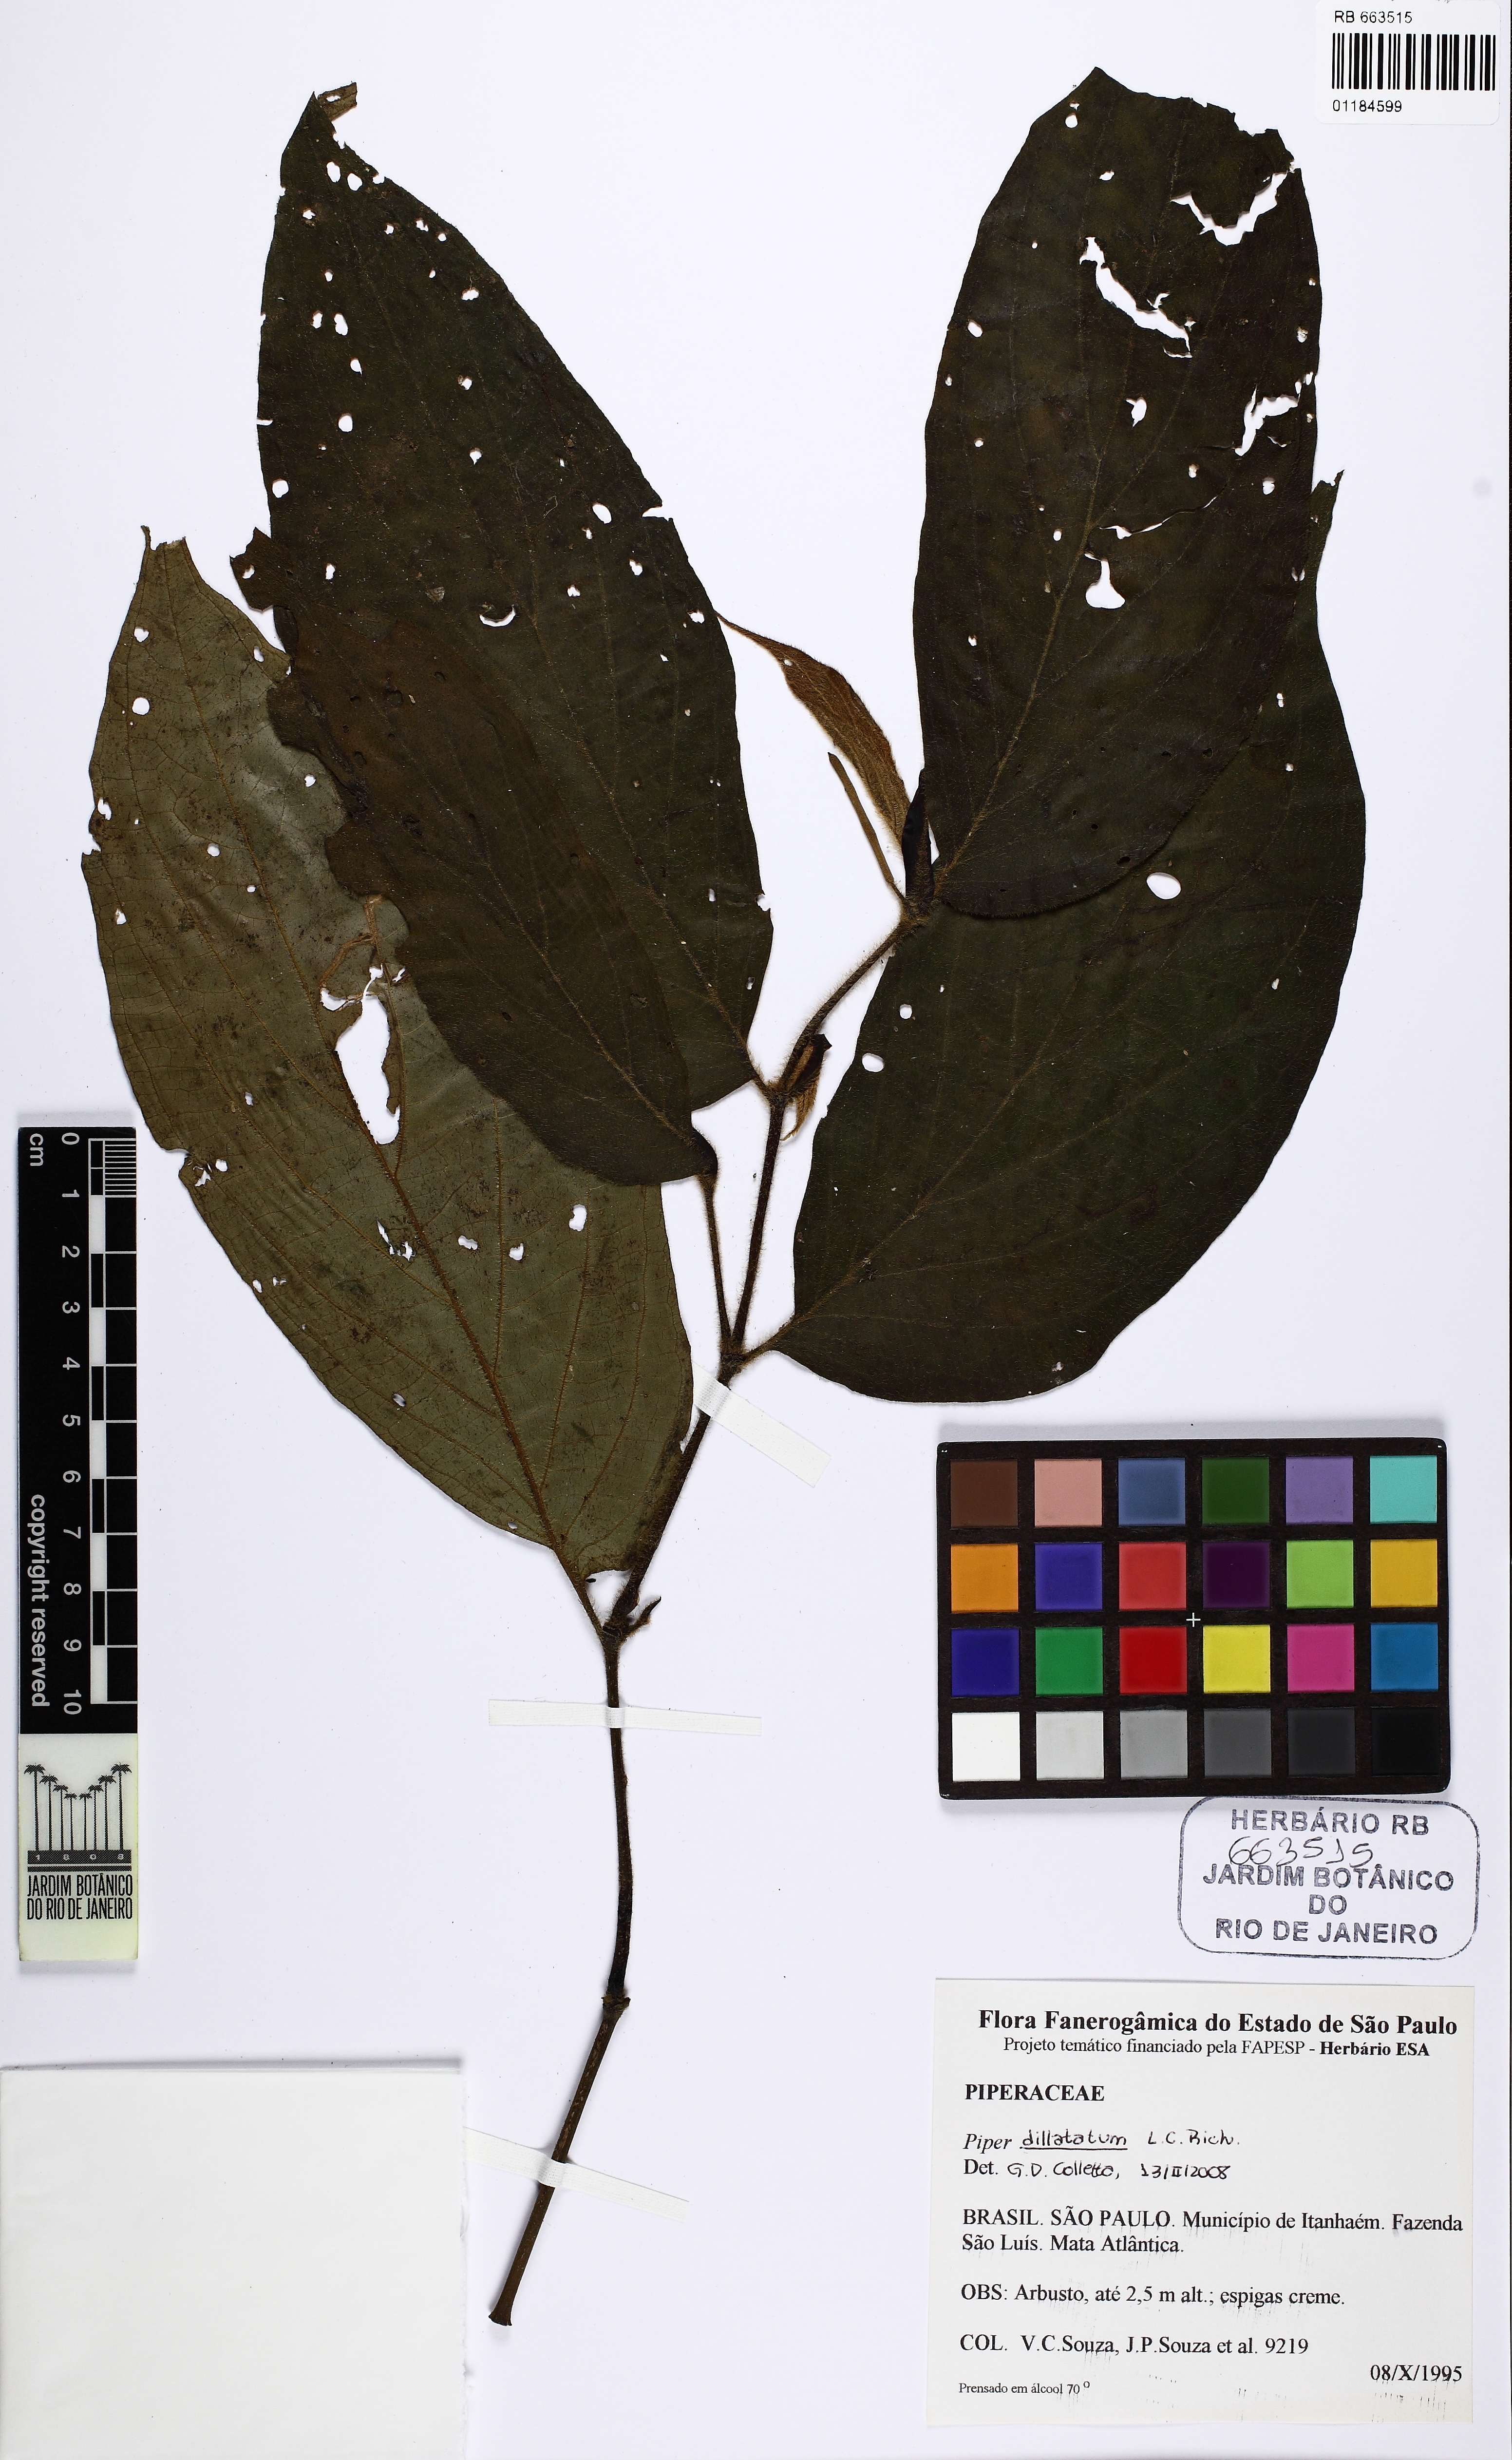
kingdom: Plantae
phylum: Tracheophyta
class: Magnoliopsida
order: Piperales
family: Piperaceae
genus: Piper
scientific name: Piper dilatatum
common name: Higuillo
